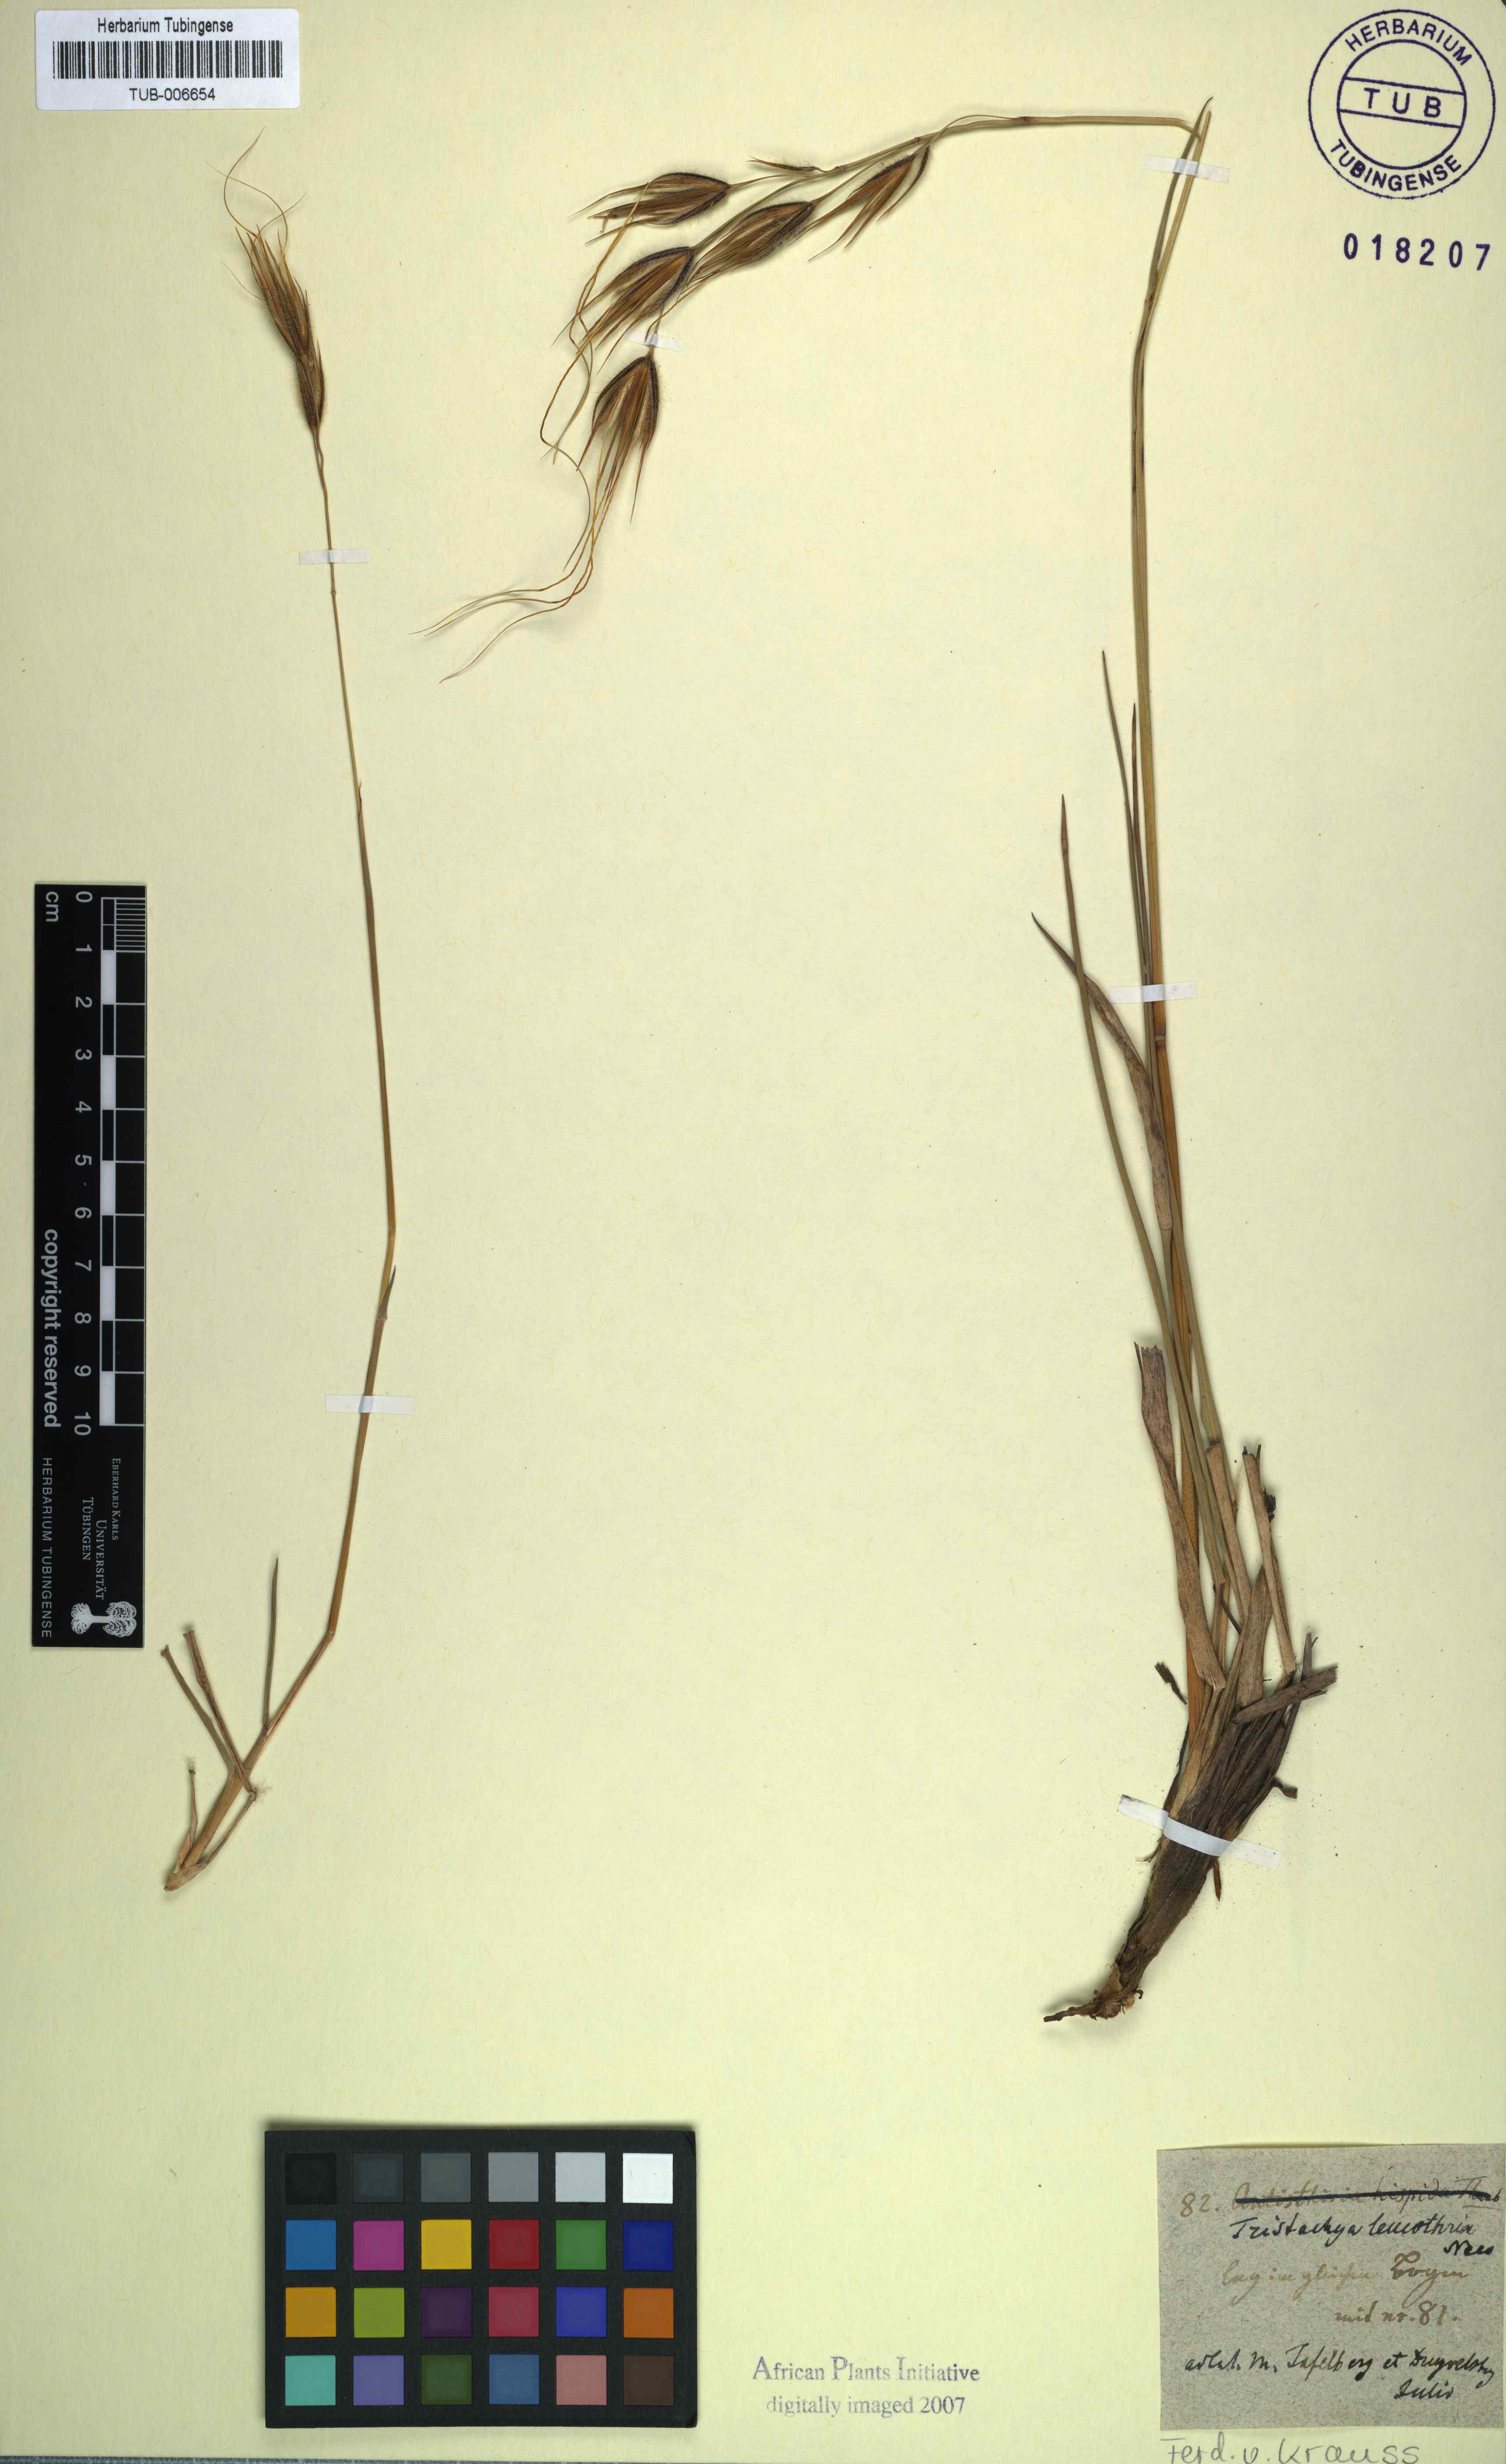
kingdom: Plantae
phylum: Tracheophyta
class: Liliopsida
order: Poales
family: Poaceae
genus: Tristachya
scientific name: Tristachya leucothrix
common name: Trident grass
